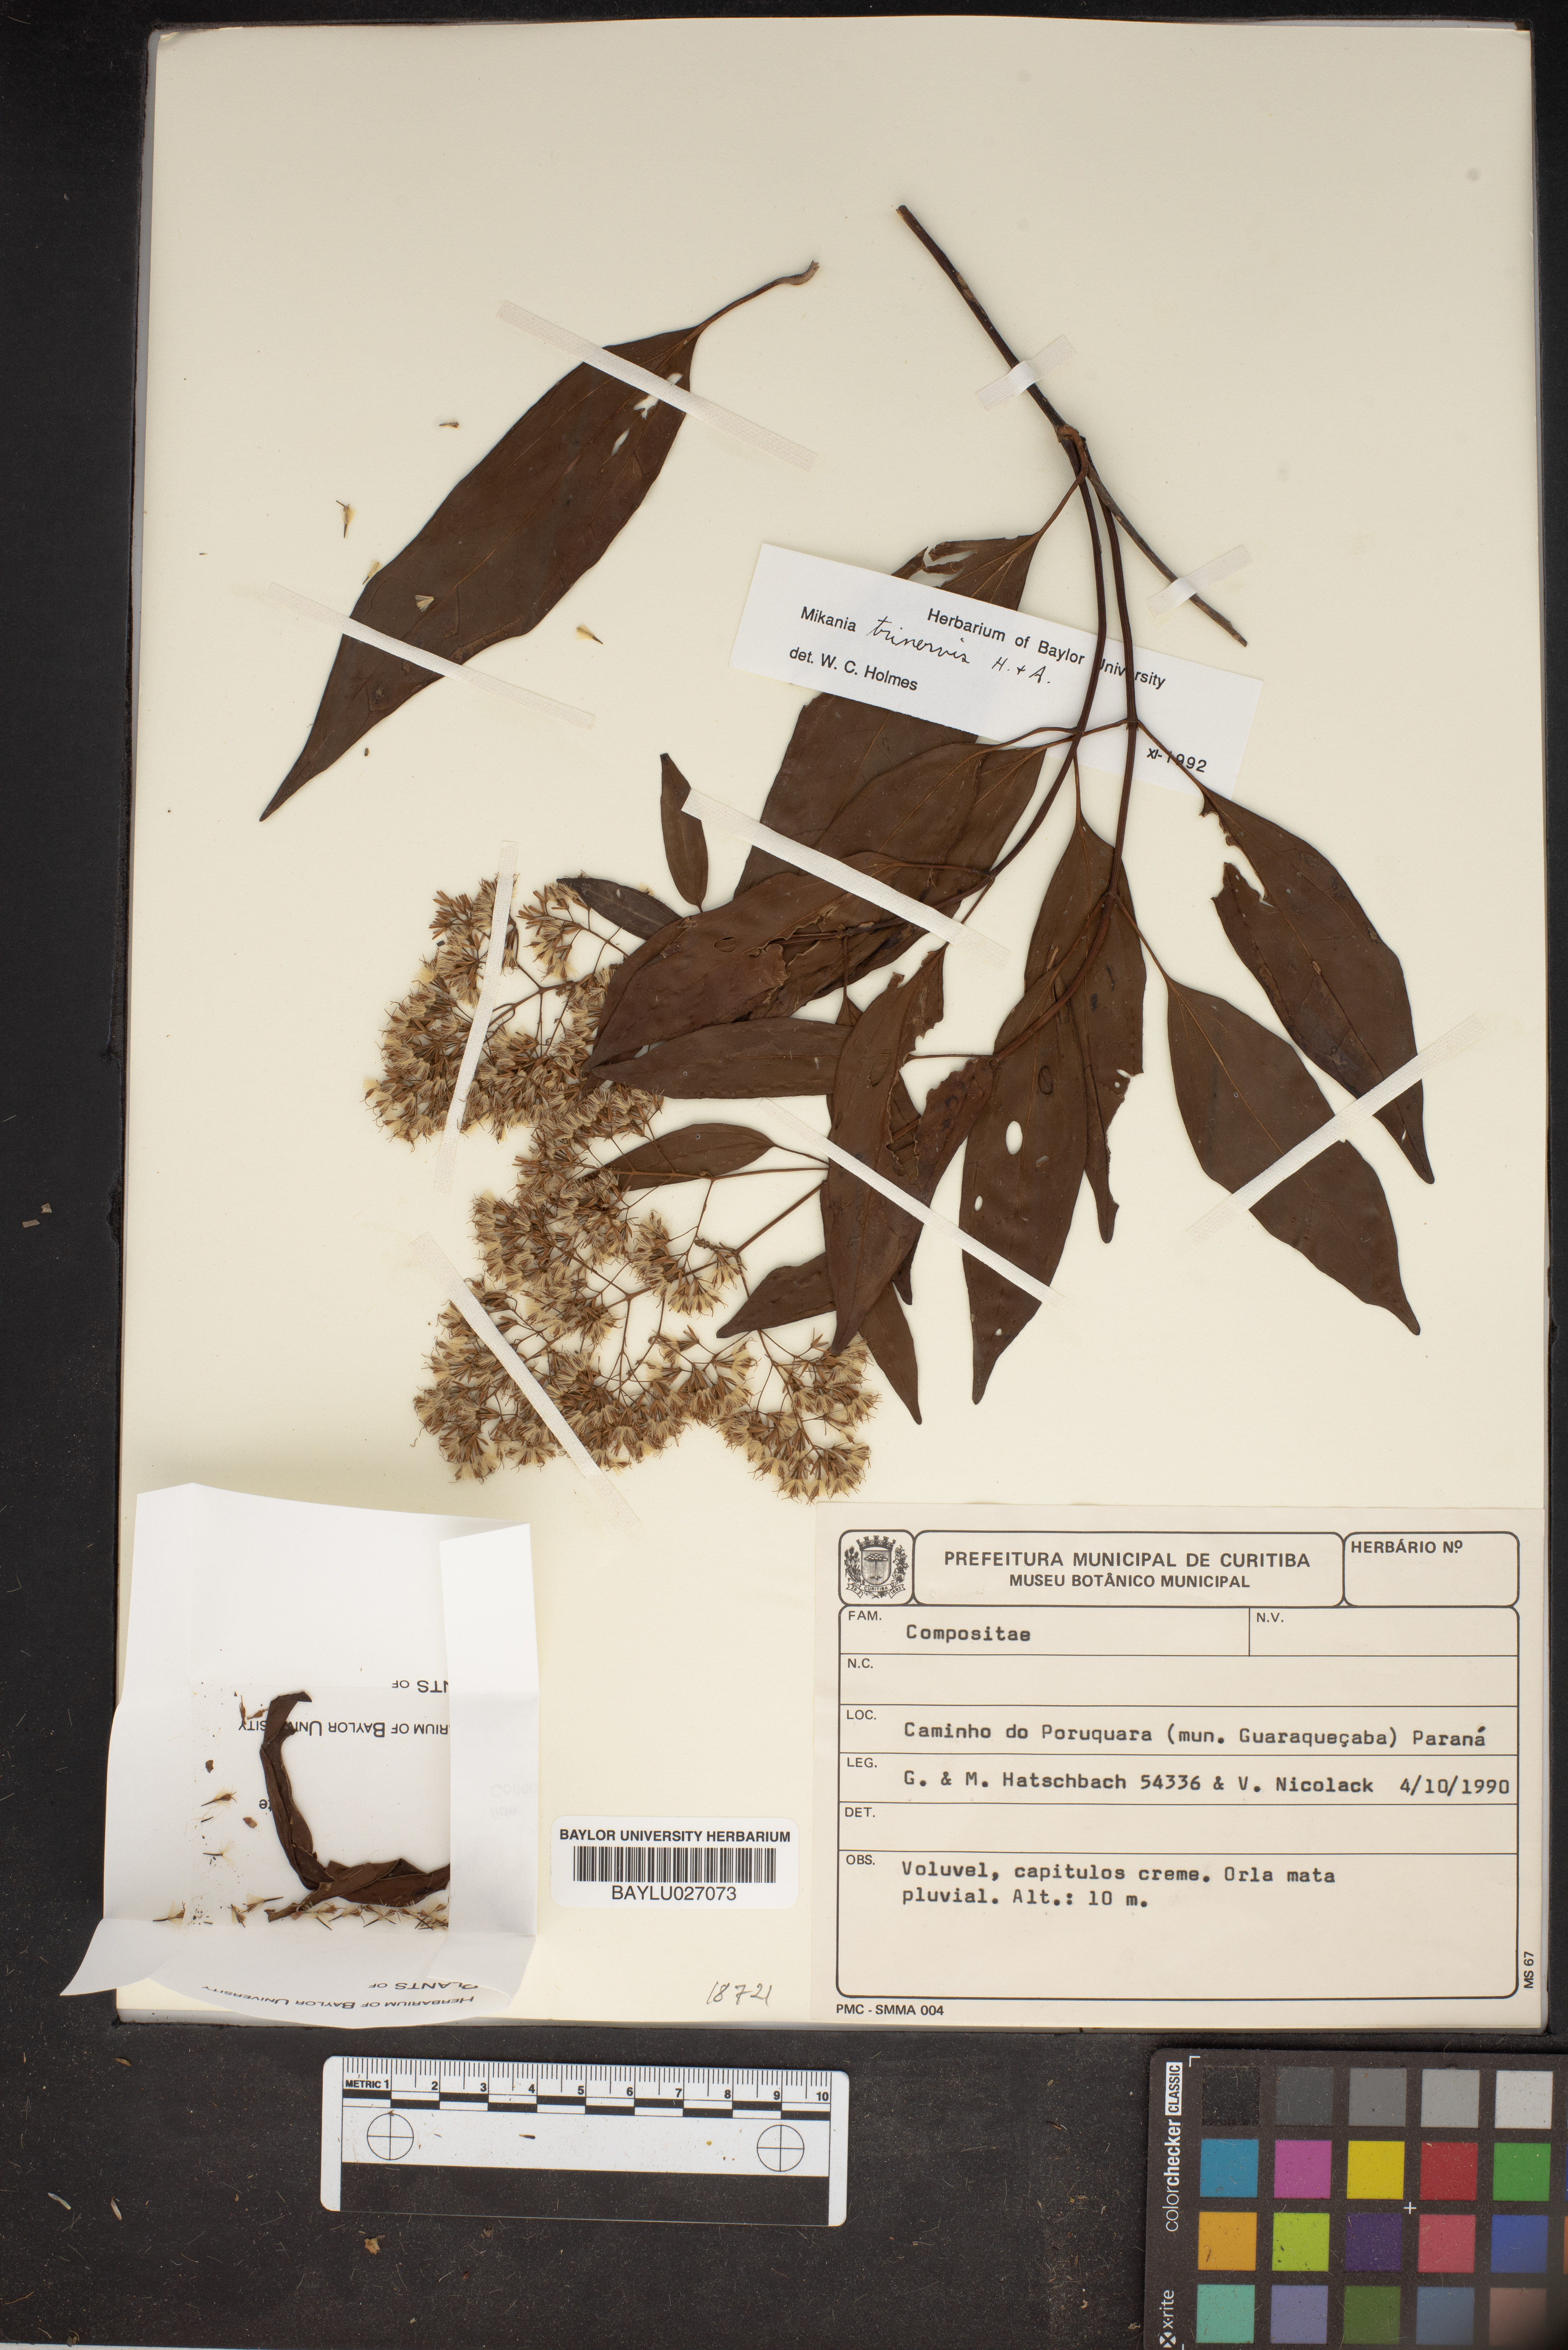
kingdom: Plantae
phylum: Tracheophyta
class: Magnoliopsida
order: Asterales
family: Asteraceae
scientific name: Asteraceae
